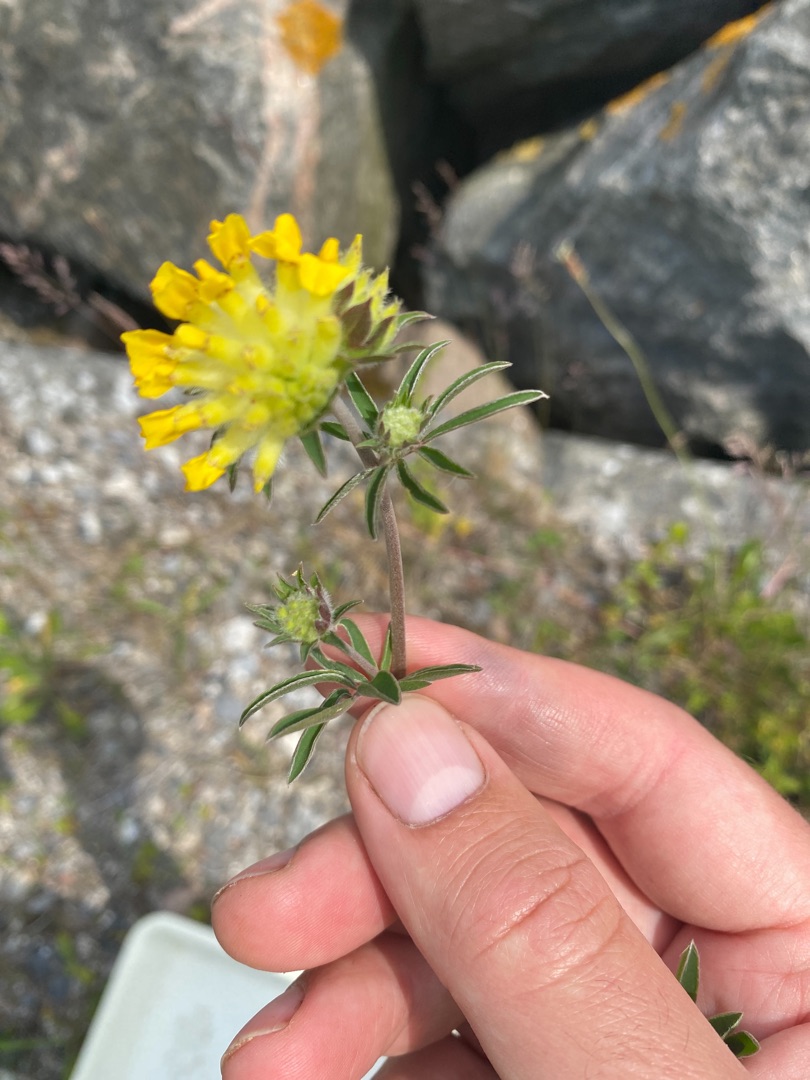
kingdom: Plantae
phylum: Tracheophyta
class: Magnoliopsida
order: Fabales
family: Fabaceae
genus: Anthyllis
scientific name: Anthyllis vulneraria
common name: Rundbælg
